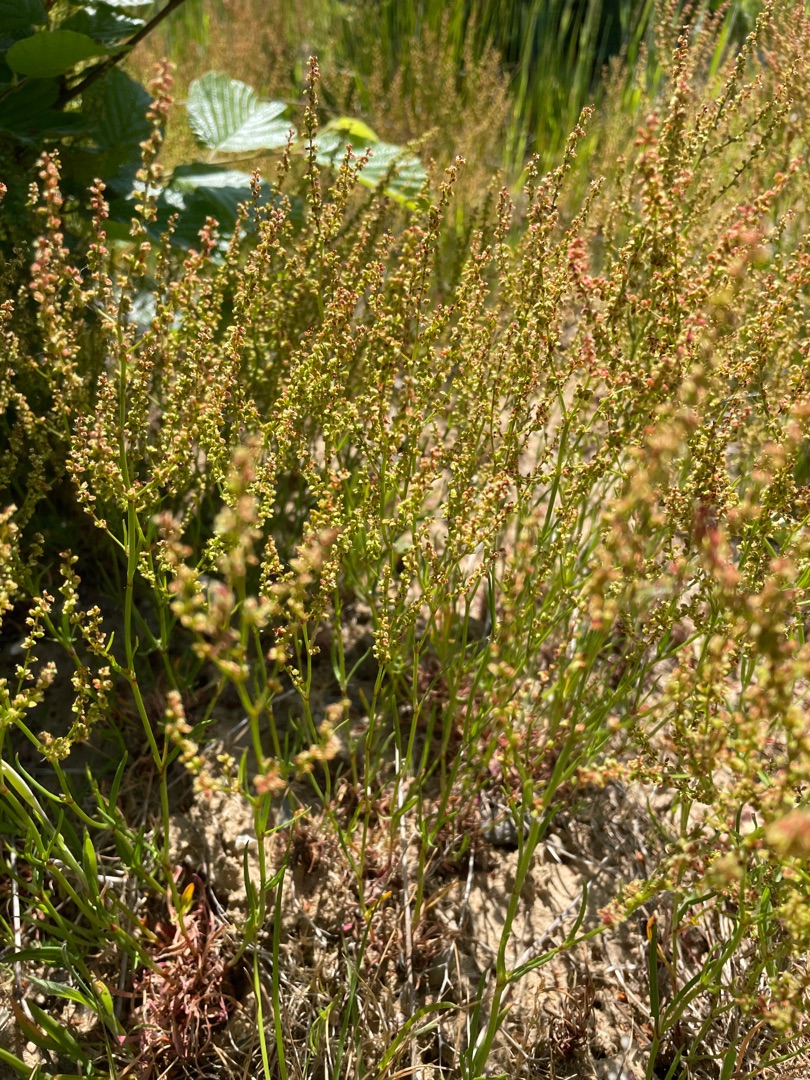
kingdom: Plantae
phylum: Tracheophyta
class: Magnoliopsida
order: Caryophyllales
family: Polygonaceae
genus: Rumex
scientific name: Rumex acetosella
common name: Rødknæ
